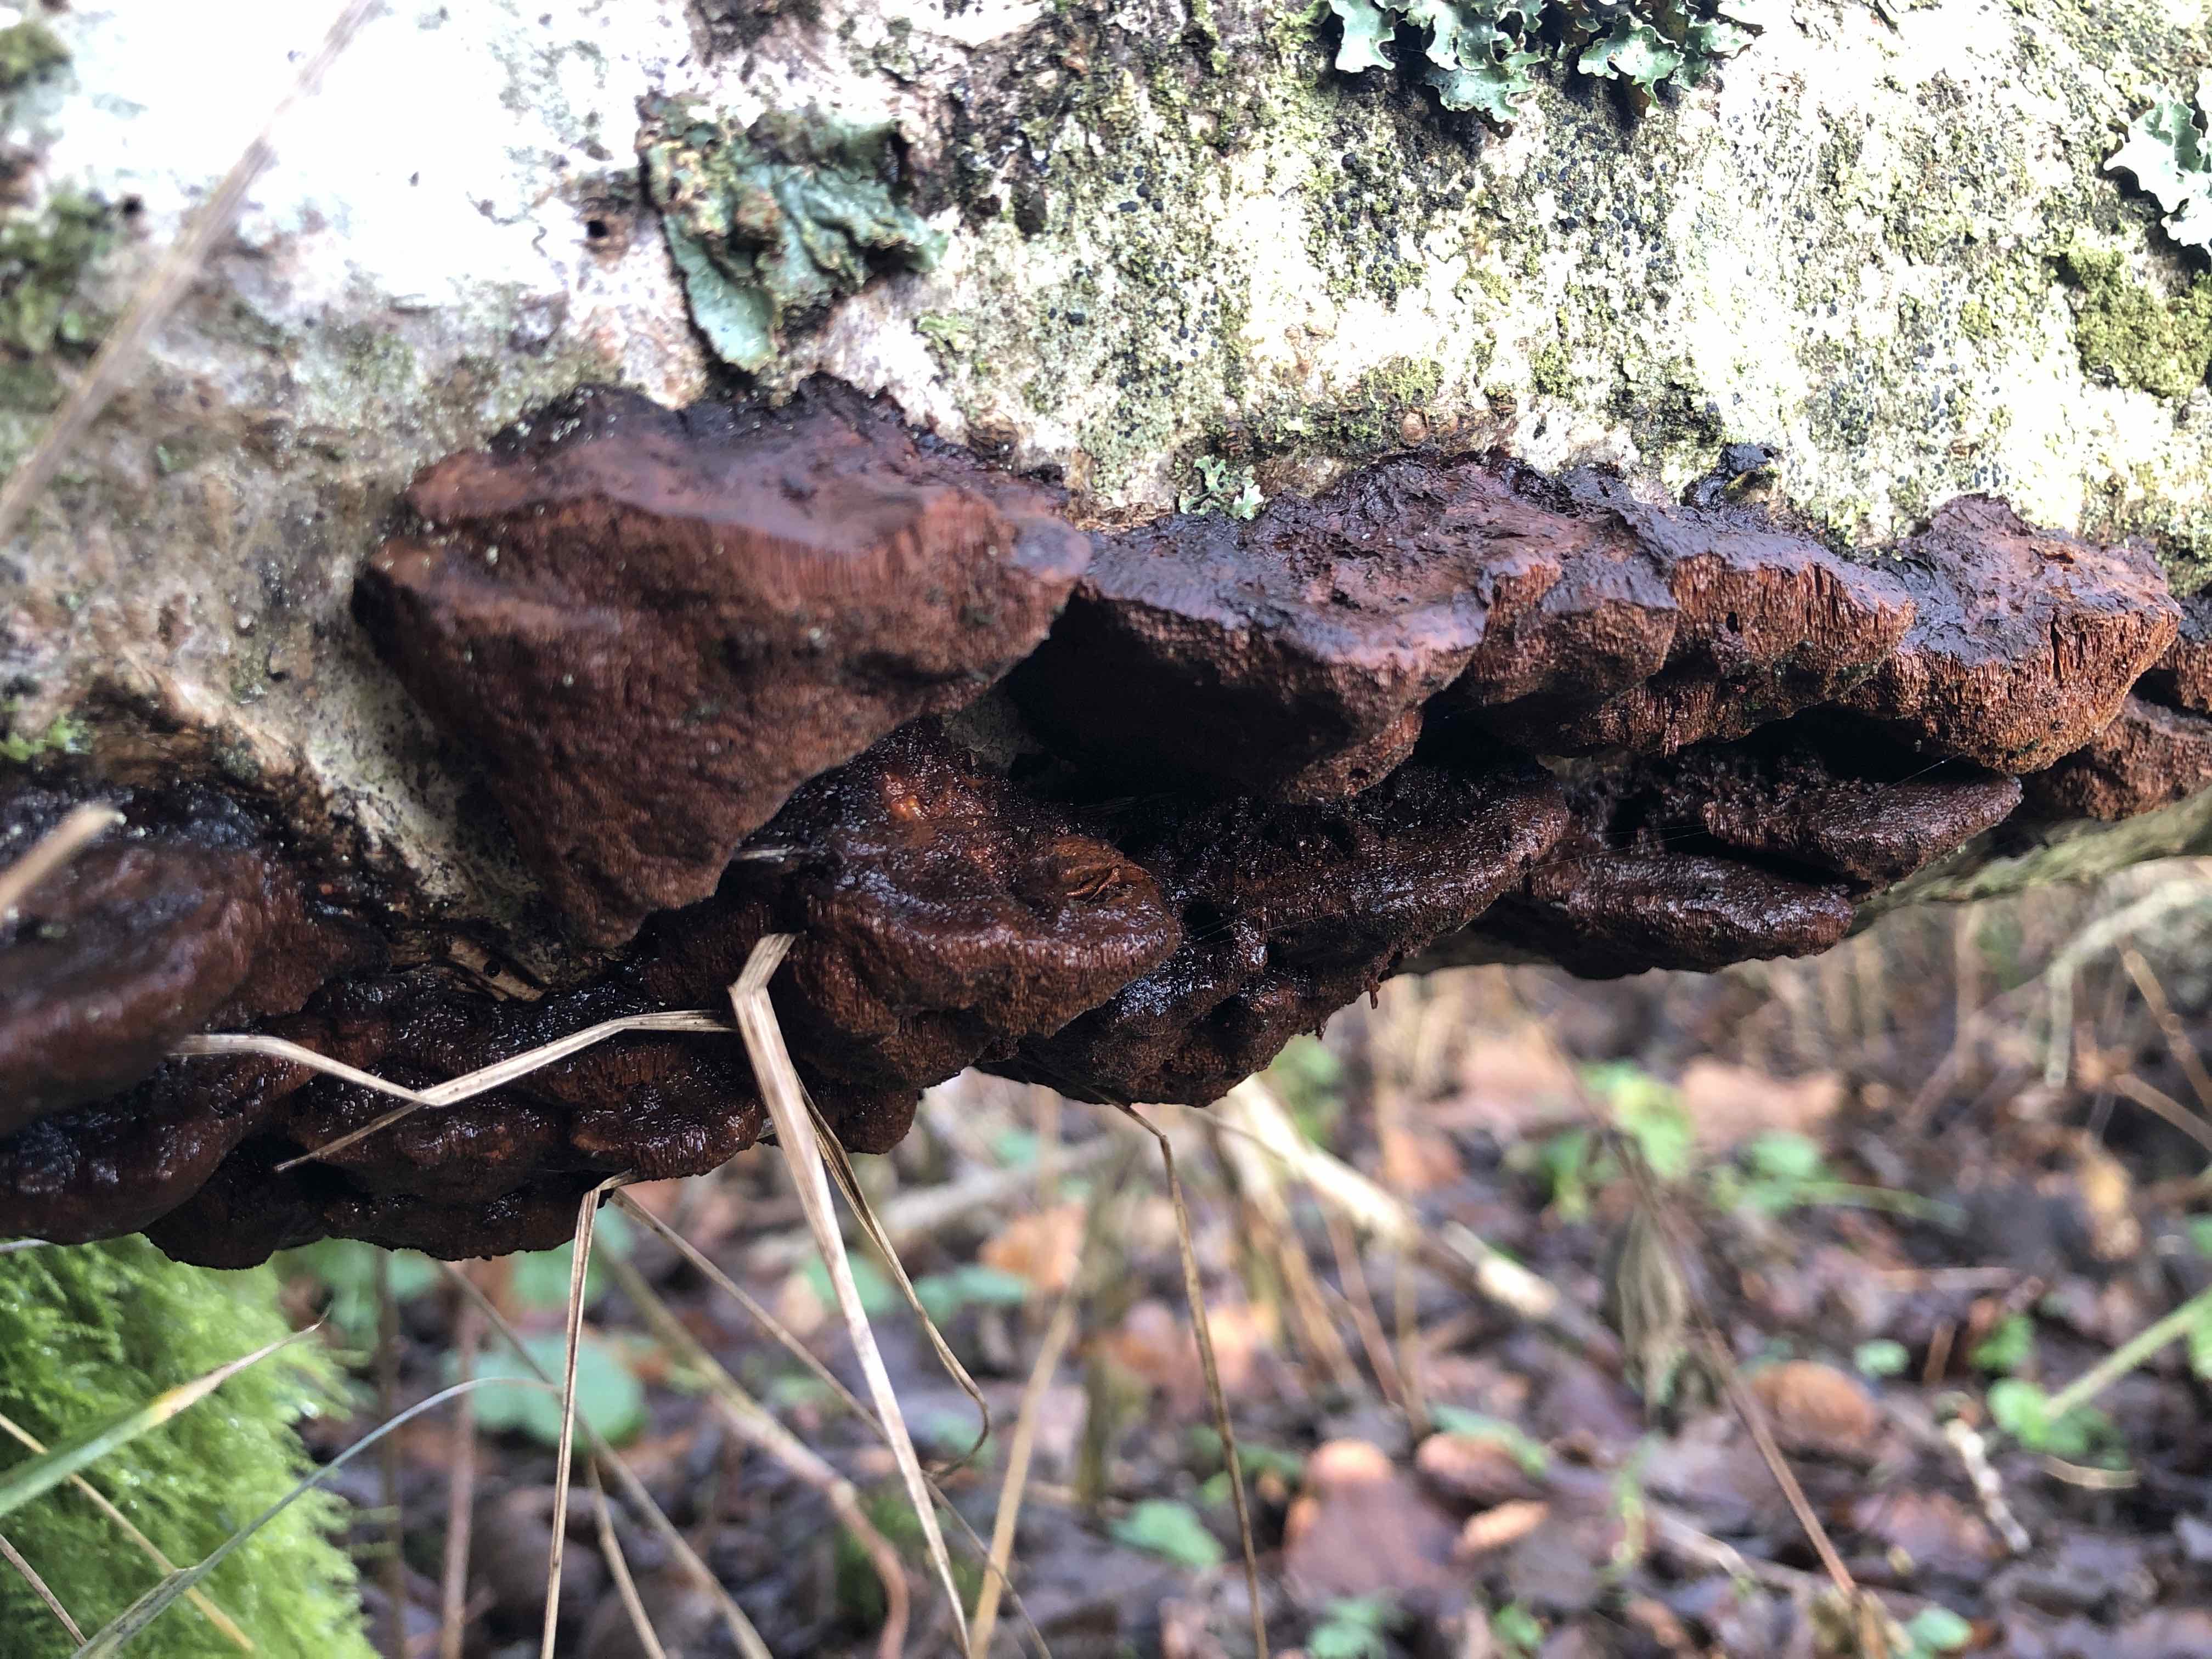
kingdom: Fungi
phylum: Basidiomycota
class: Agaricomycetes
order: Hymenochaetales
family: Hymenochaetaceae
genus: Xanthoporia
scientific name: Xanthoporia radiata
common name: elle-spejlporesvamp
